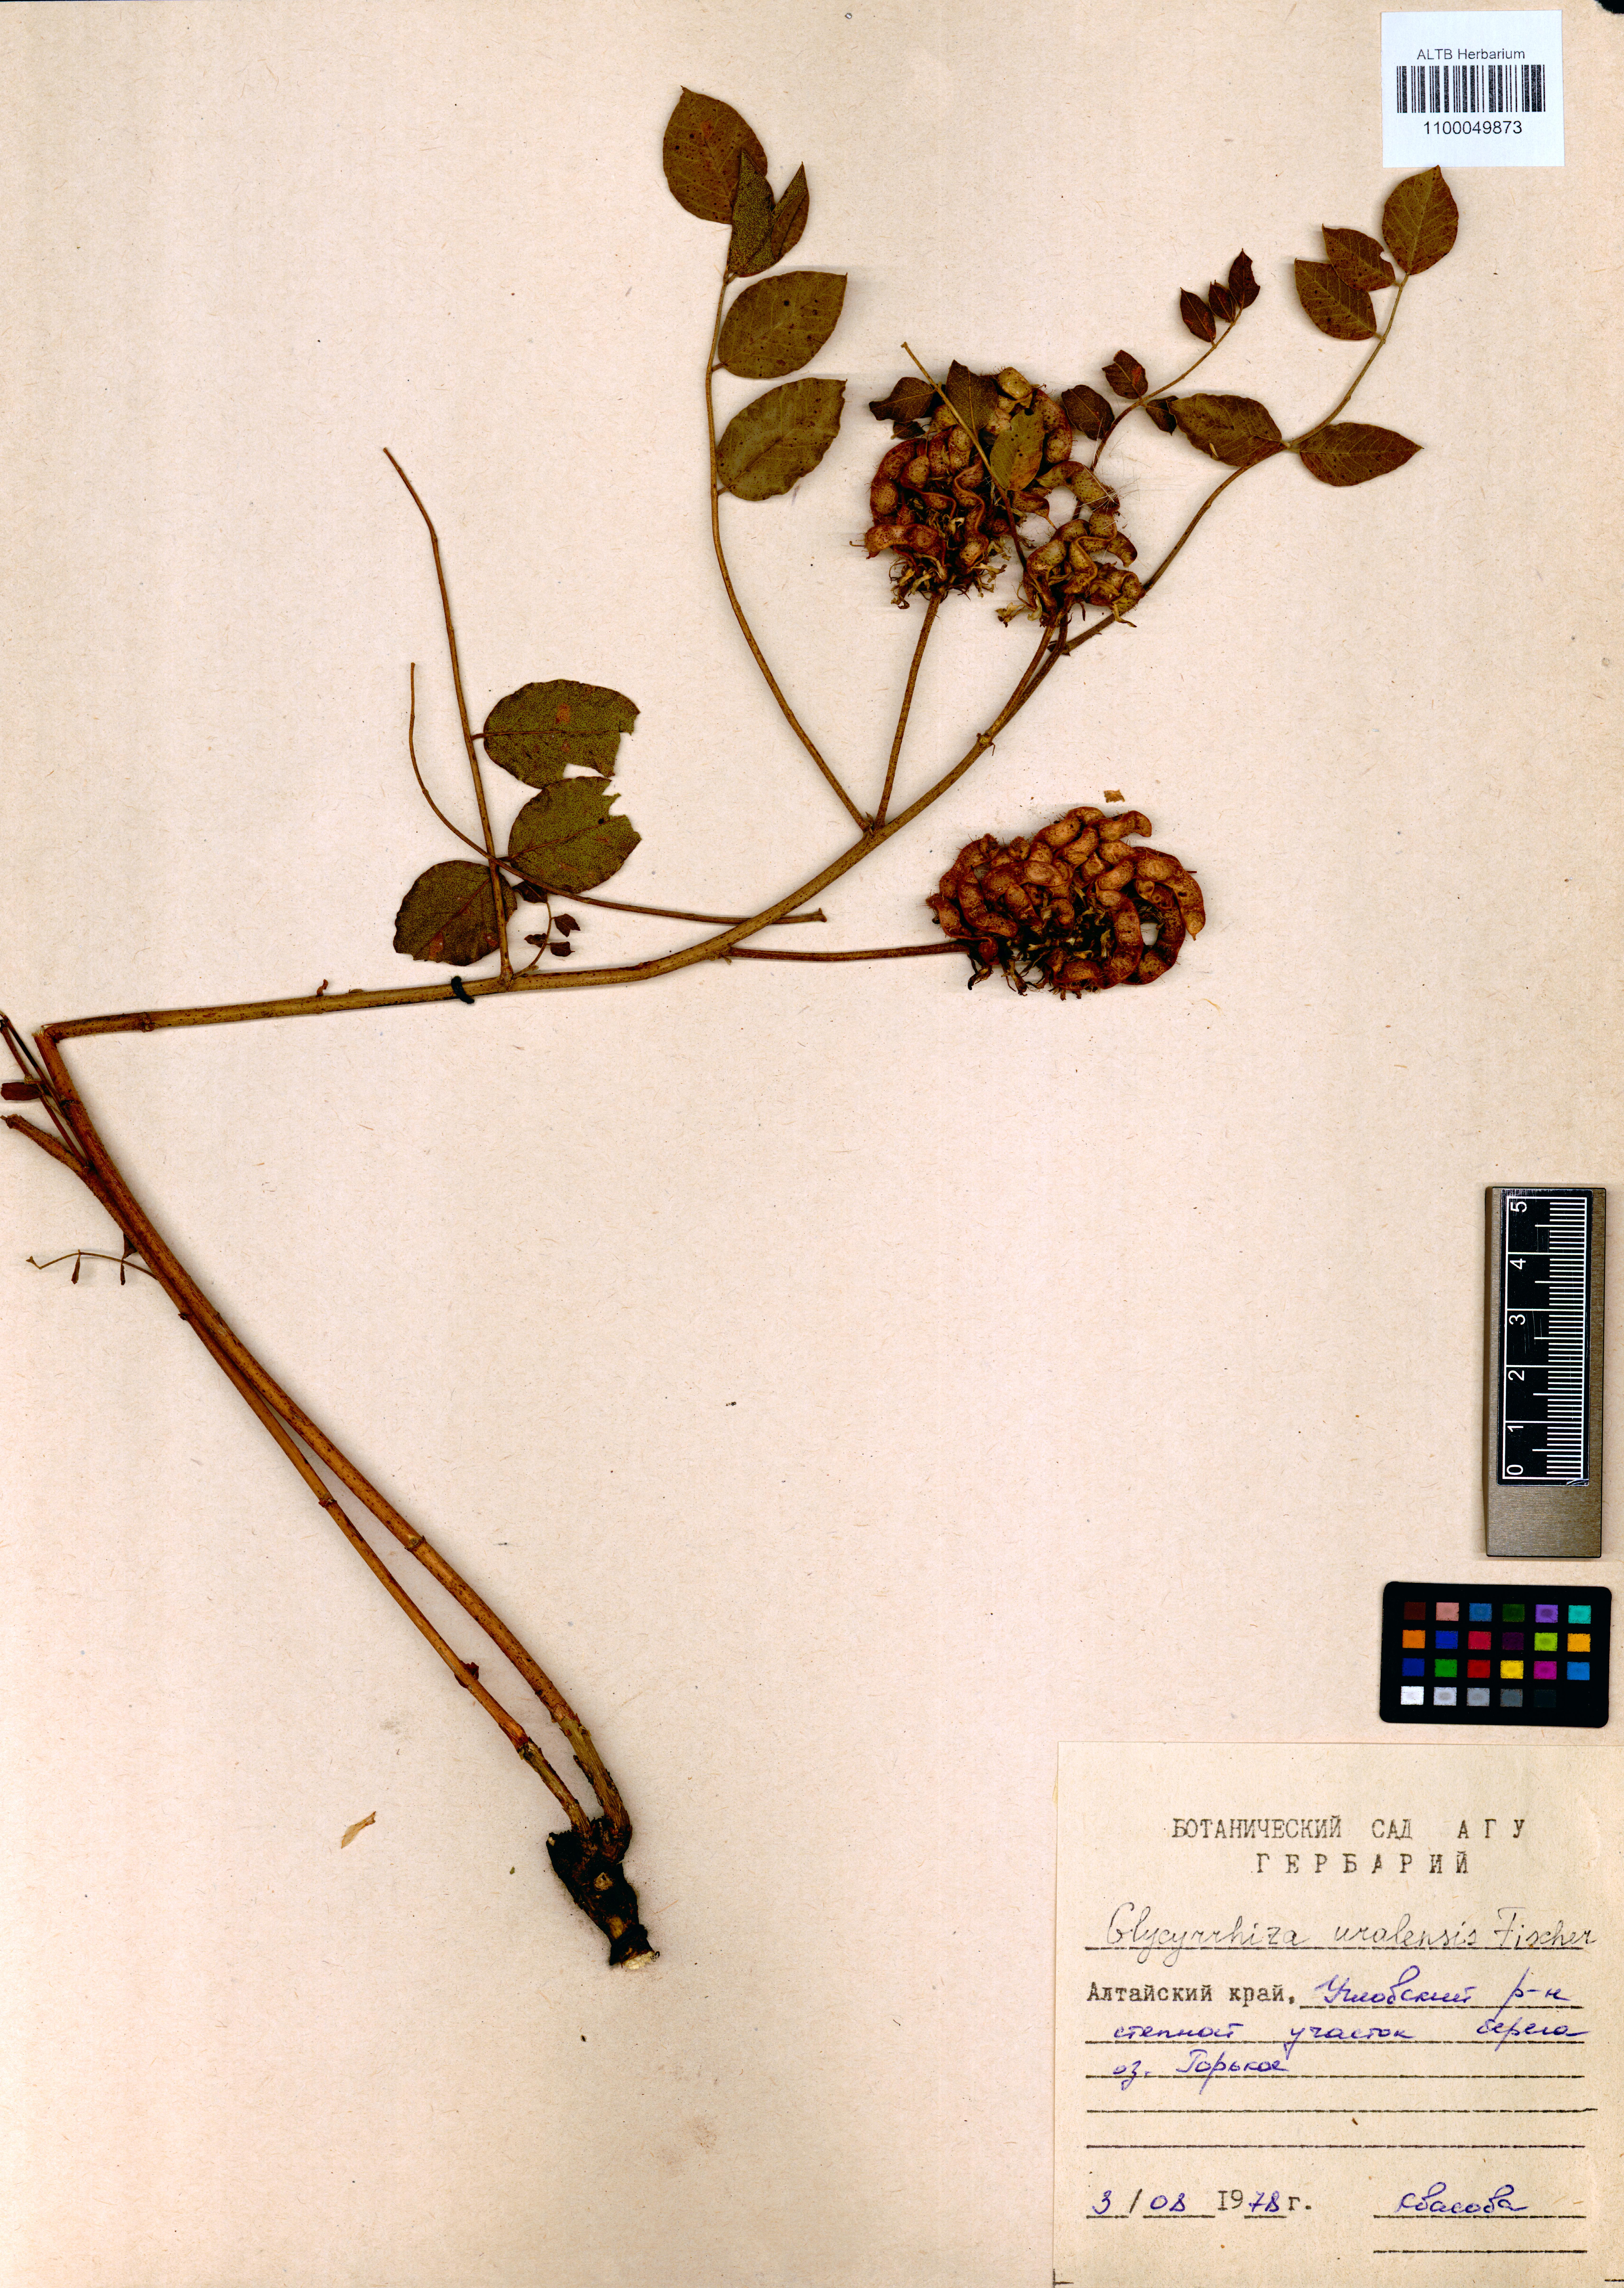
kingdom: Plantae
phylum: Tracheophyta
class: Magnoliopsida
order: Fabales
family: Fabaceae
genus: Glycyrrhiza
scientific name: Glycyrrhiza uralensis
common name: Chinese licorice
